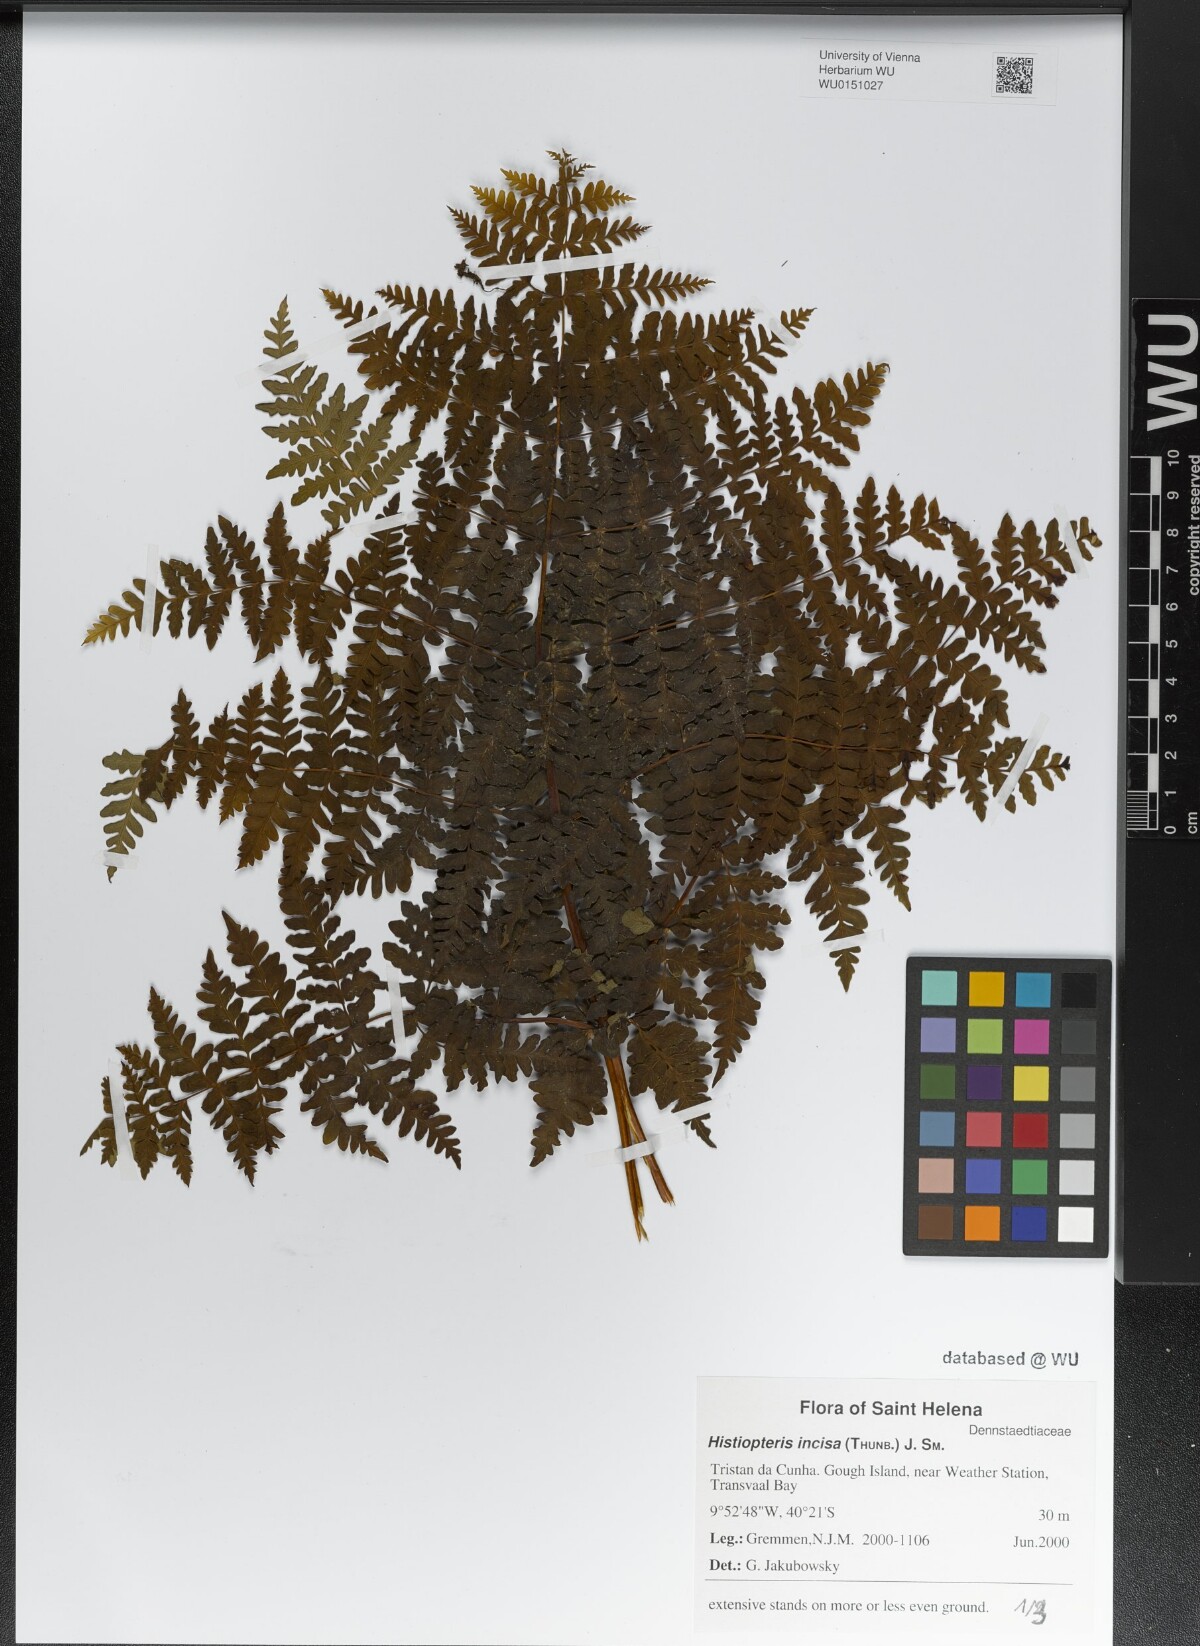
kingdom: Plantae
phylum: Tracheophyta
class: Polypodiopsida
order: Polypodiales
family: Dennstaedtiaceae
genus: Histiopteris
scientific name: Histiopteris incisa
